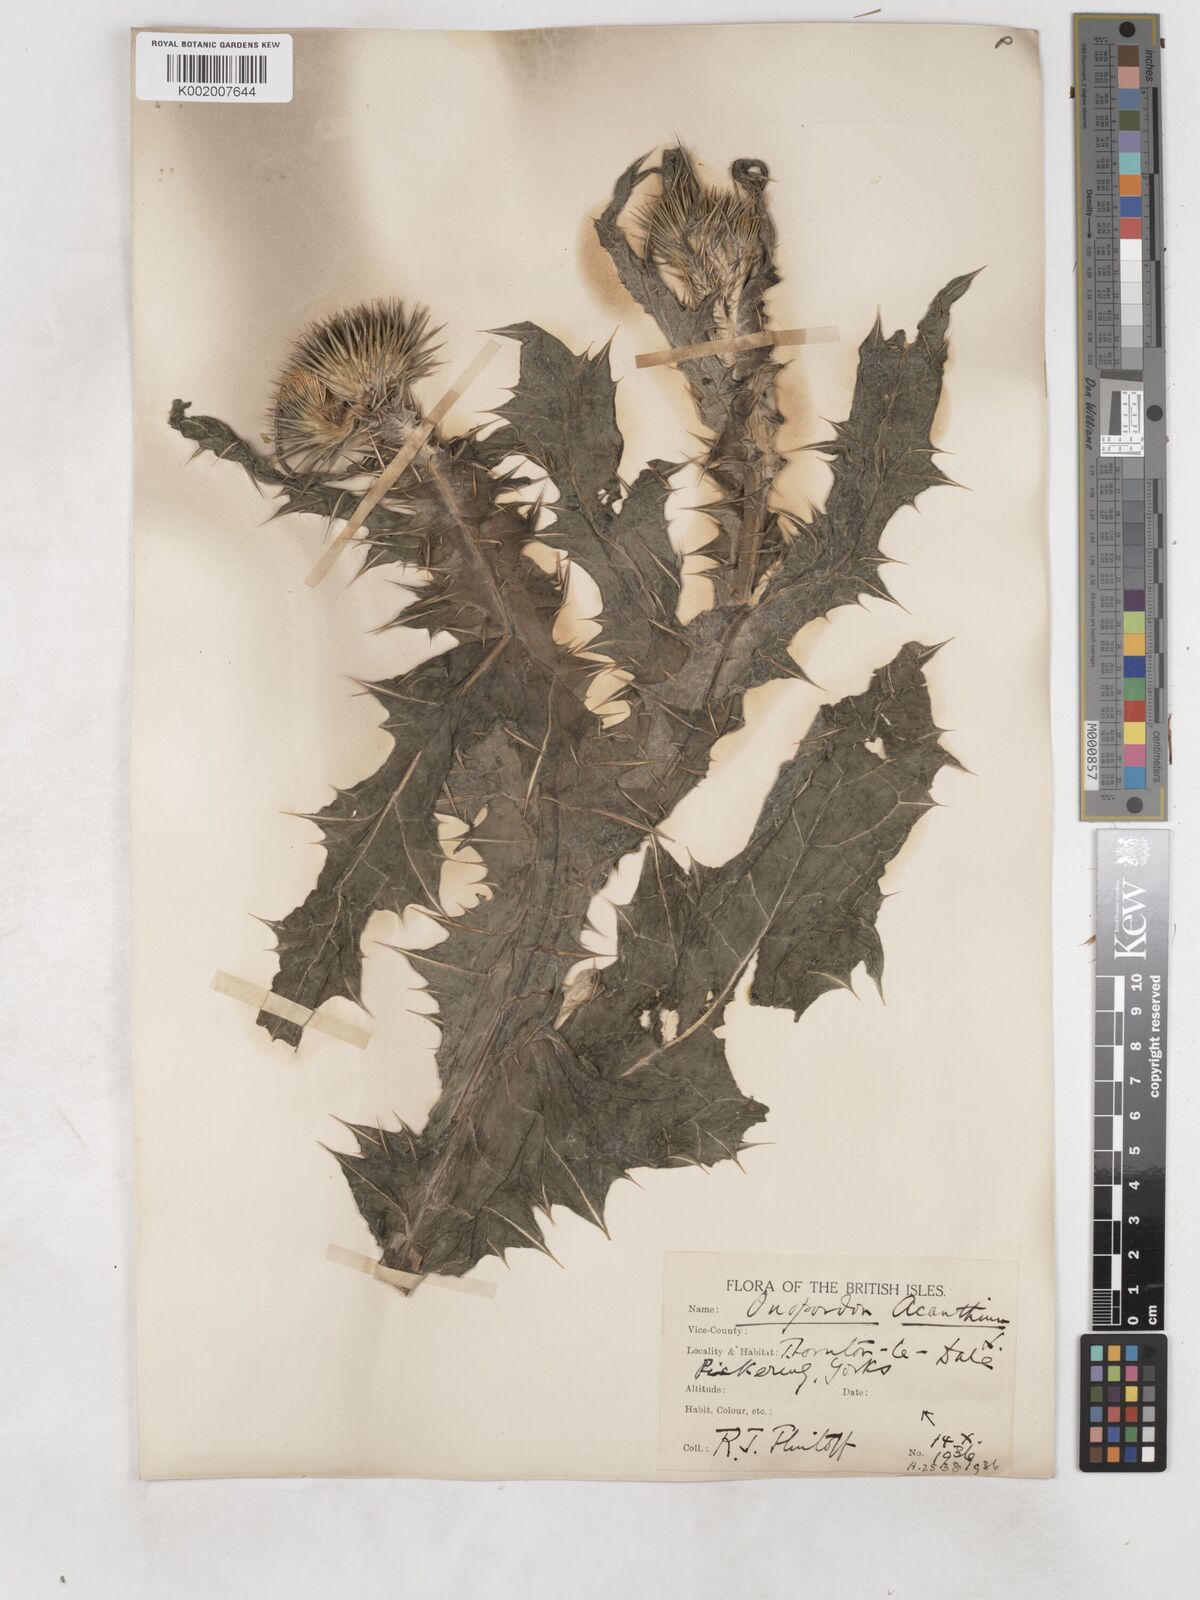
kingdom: Plantae
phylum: Tracheophyta
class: Magnoliopsida
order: Asterales
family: Asteraceae
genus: Onopordum
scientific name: Onopordum acanthium
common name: Scotch thistle
